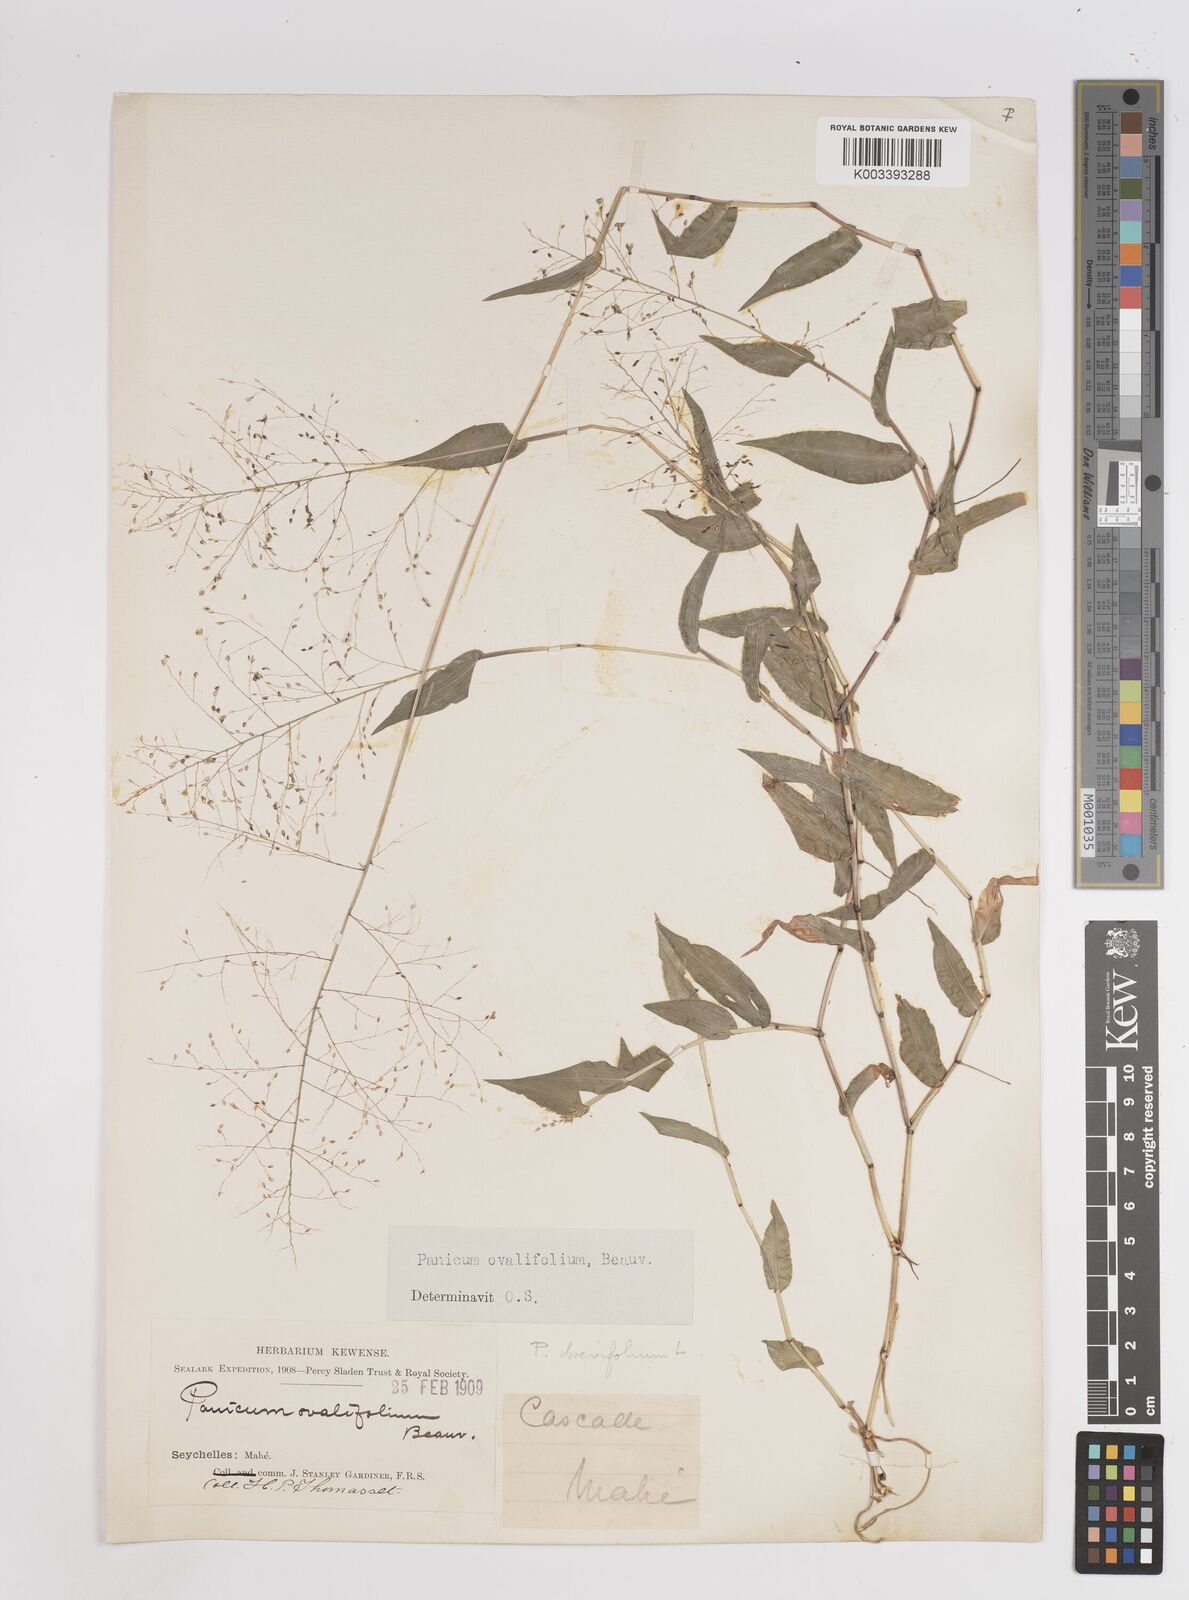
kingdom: Plantae
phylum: Tracheophyta
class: Liliopsida
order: Poales
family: Poaceae
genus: Panicum
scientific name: Panicum brevifolium
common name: Shortleaf panic grass
